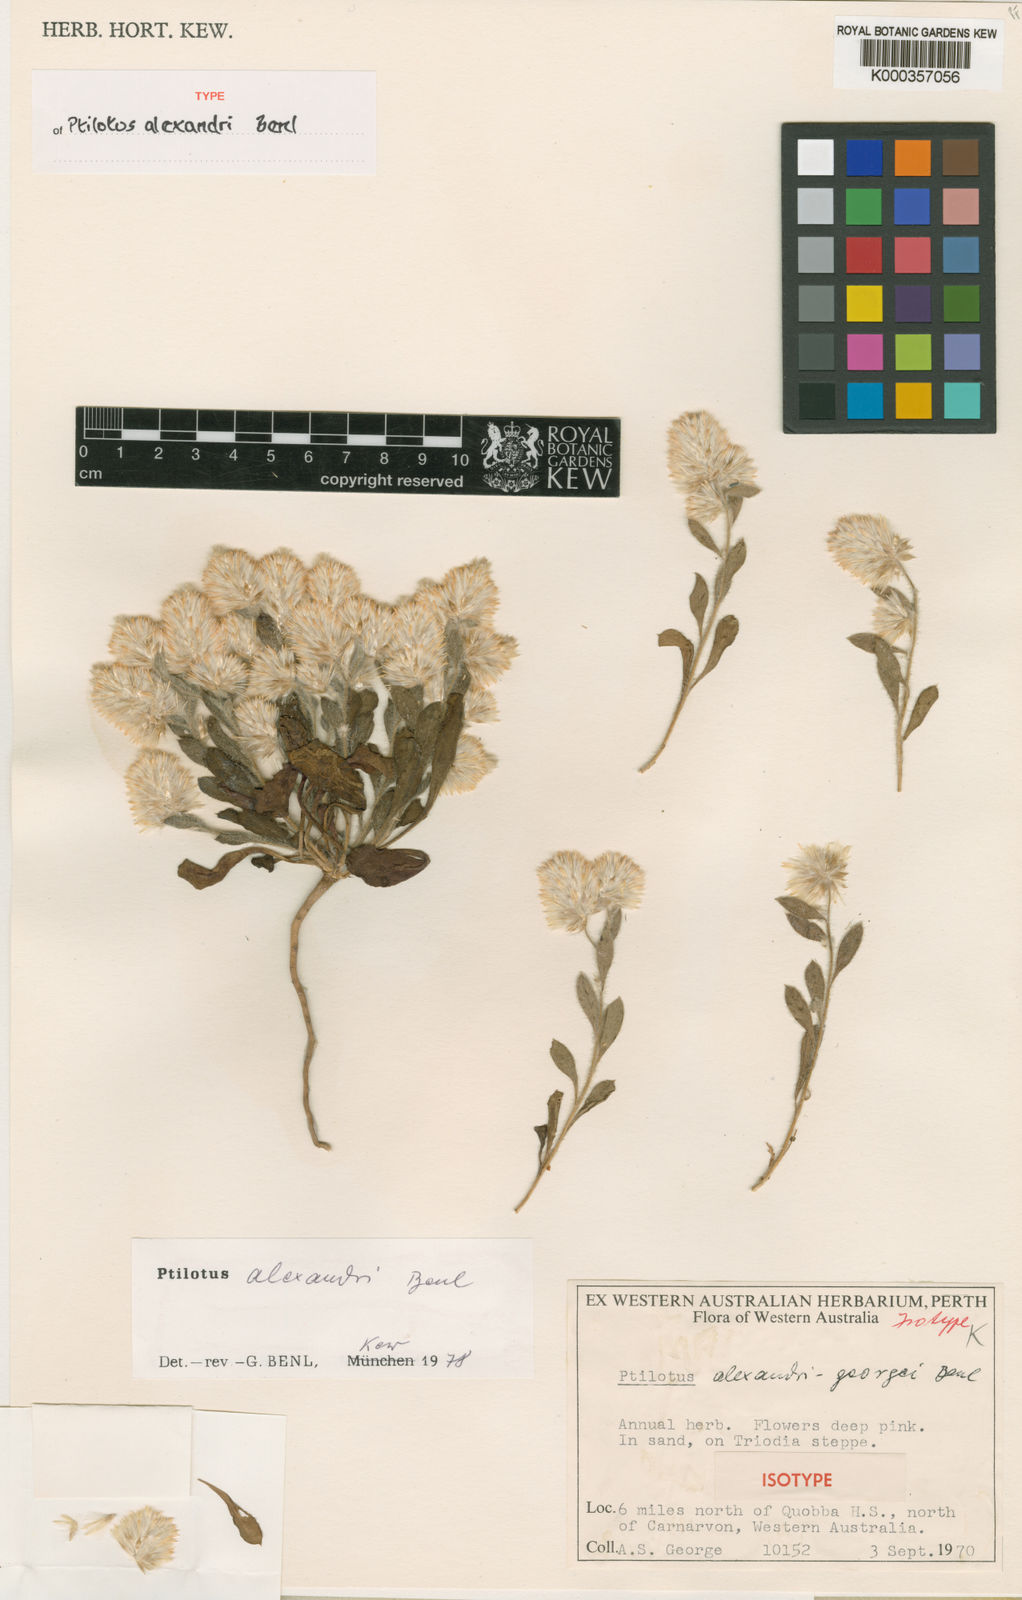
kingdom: Plantae
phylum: Tracheophyta
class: Magnoliopsida
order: Caryophyllales
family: Amaranthaceae
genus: Ptilotus
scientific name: Ptilotus alexandri
